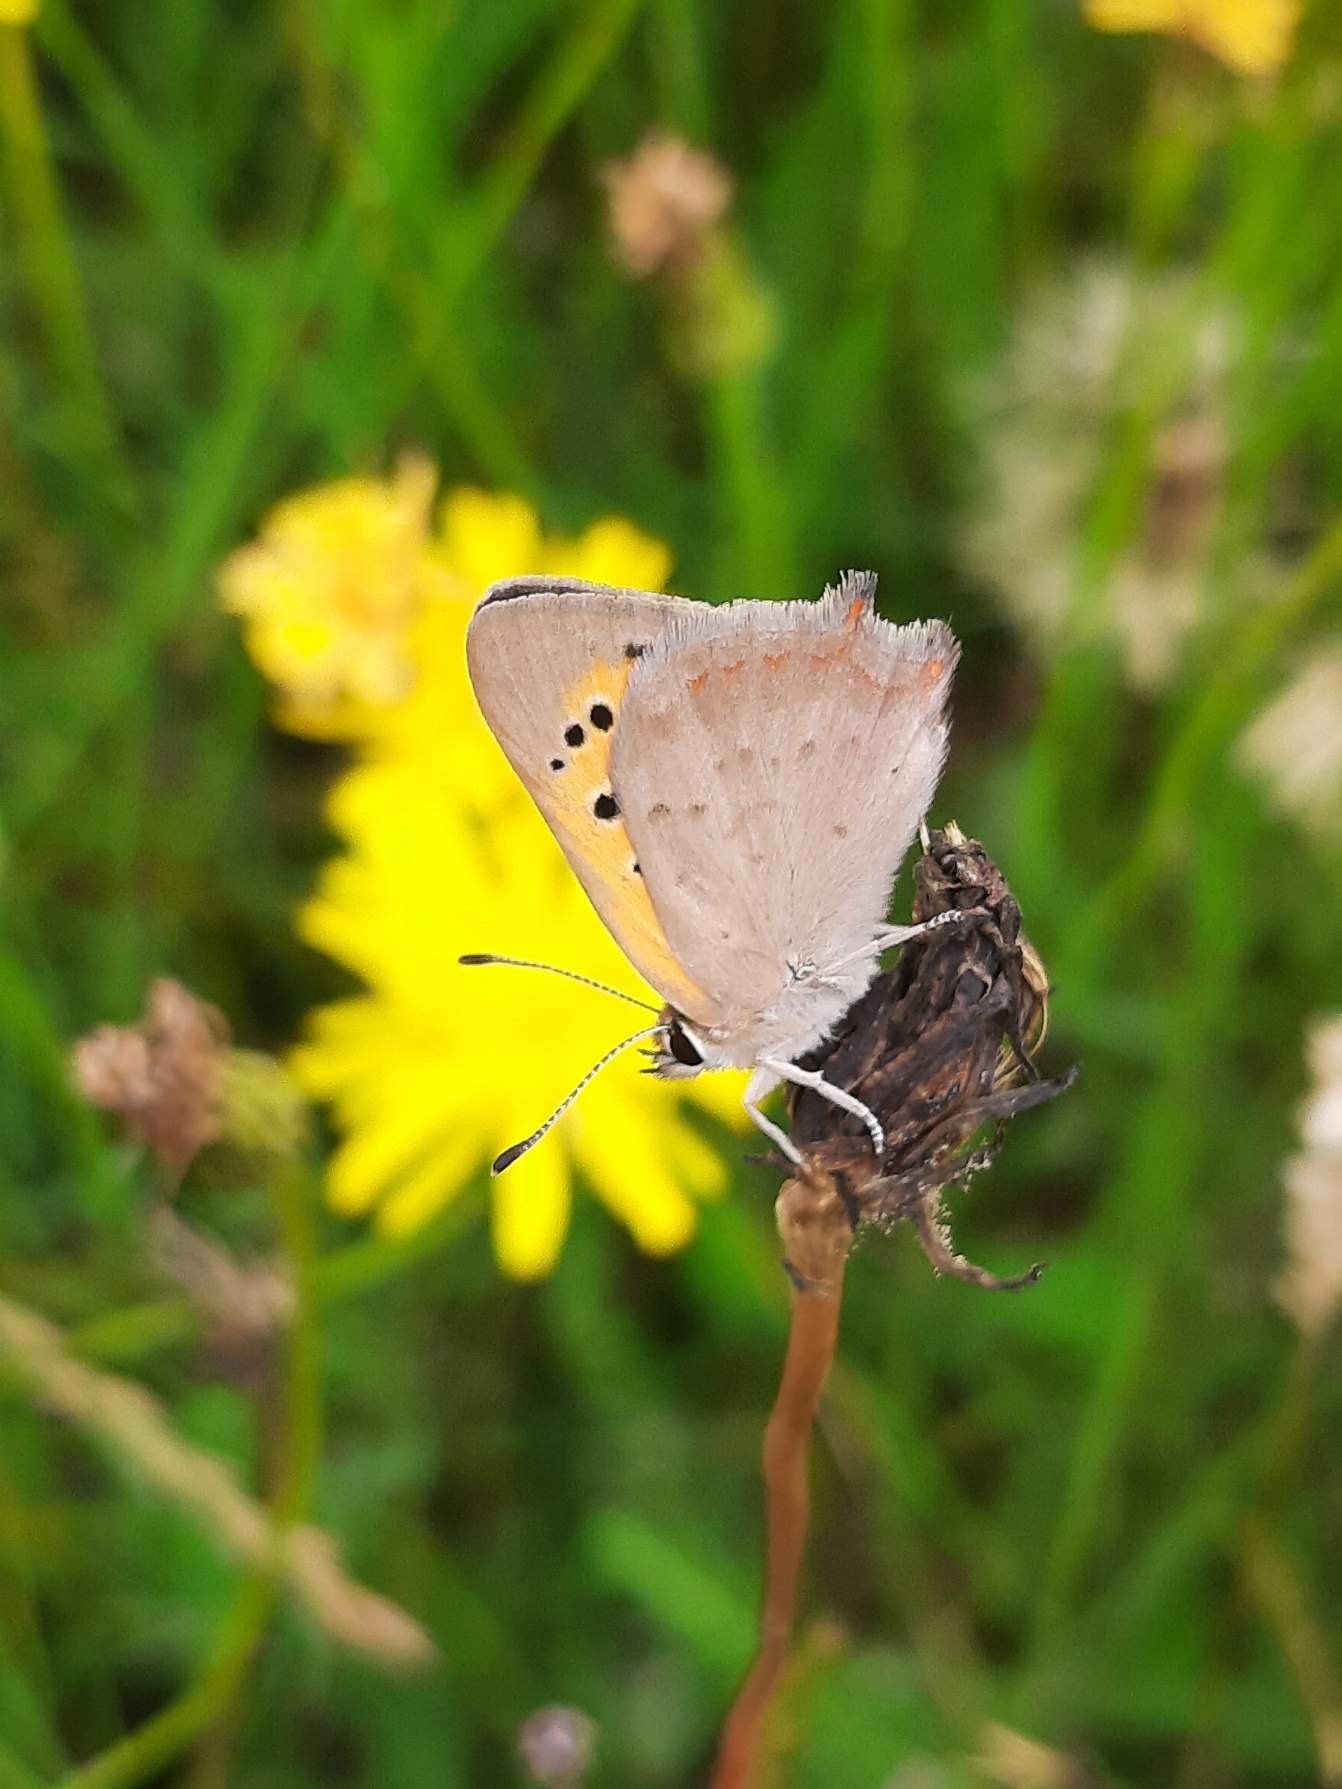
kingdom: Animalia
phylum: Arthropoda
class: Insecta
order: Lepidoptera
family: Lycaenidae
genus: Lycaena
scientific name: Lycaena phlaeas
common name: Lille ildfugl
